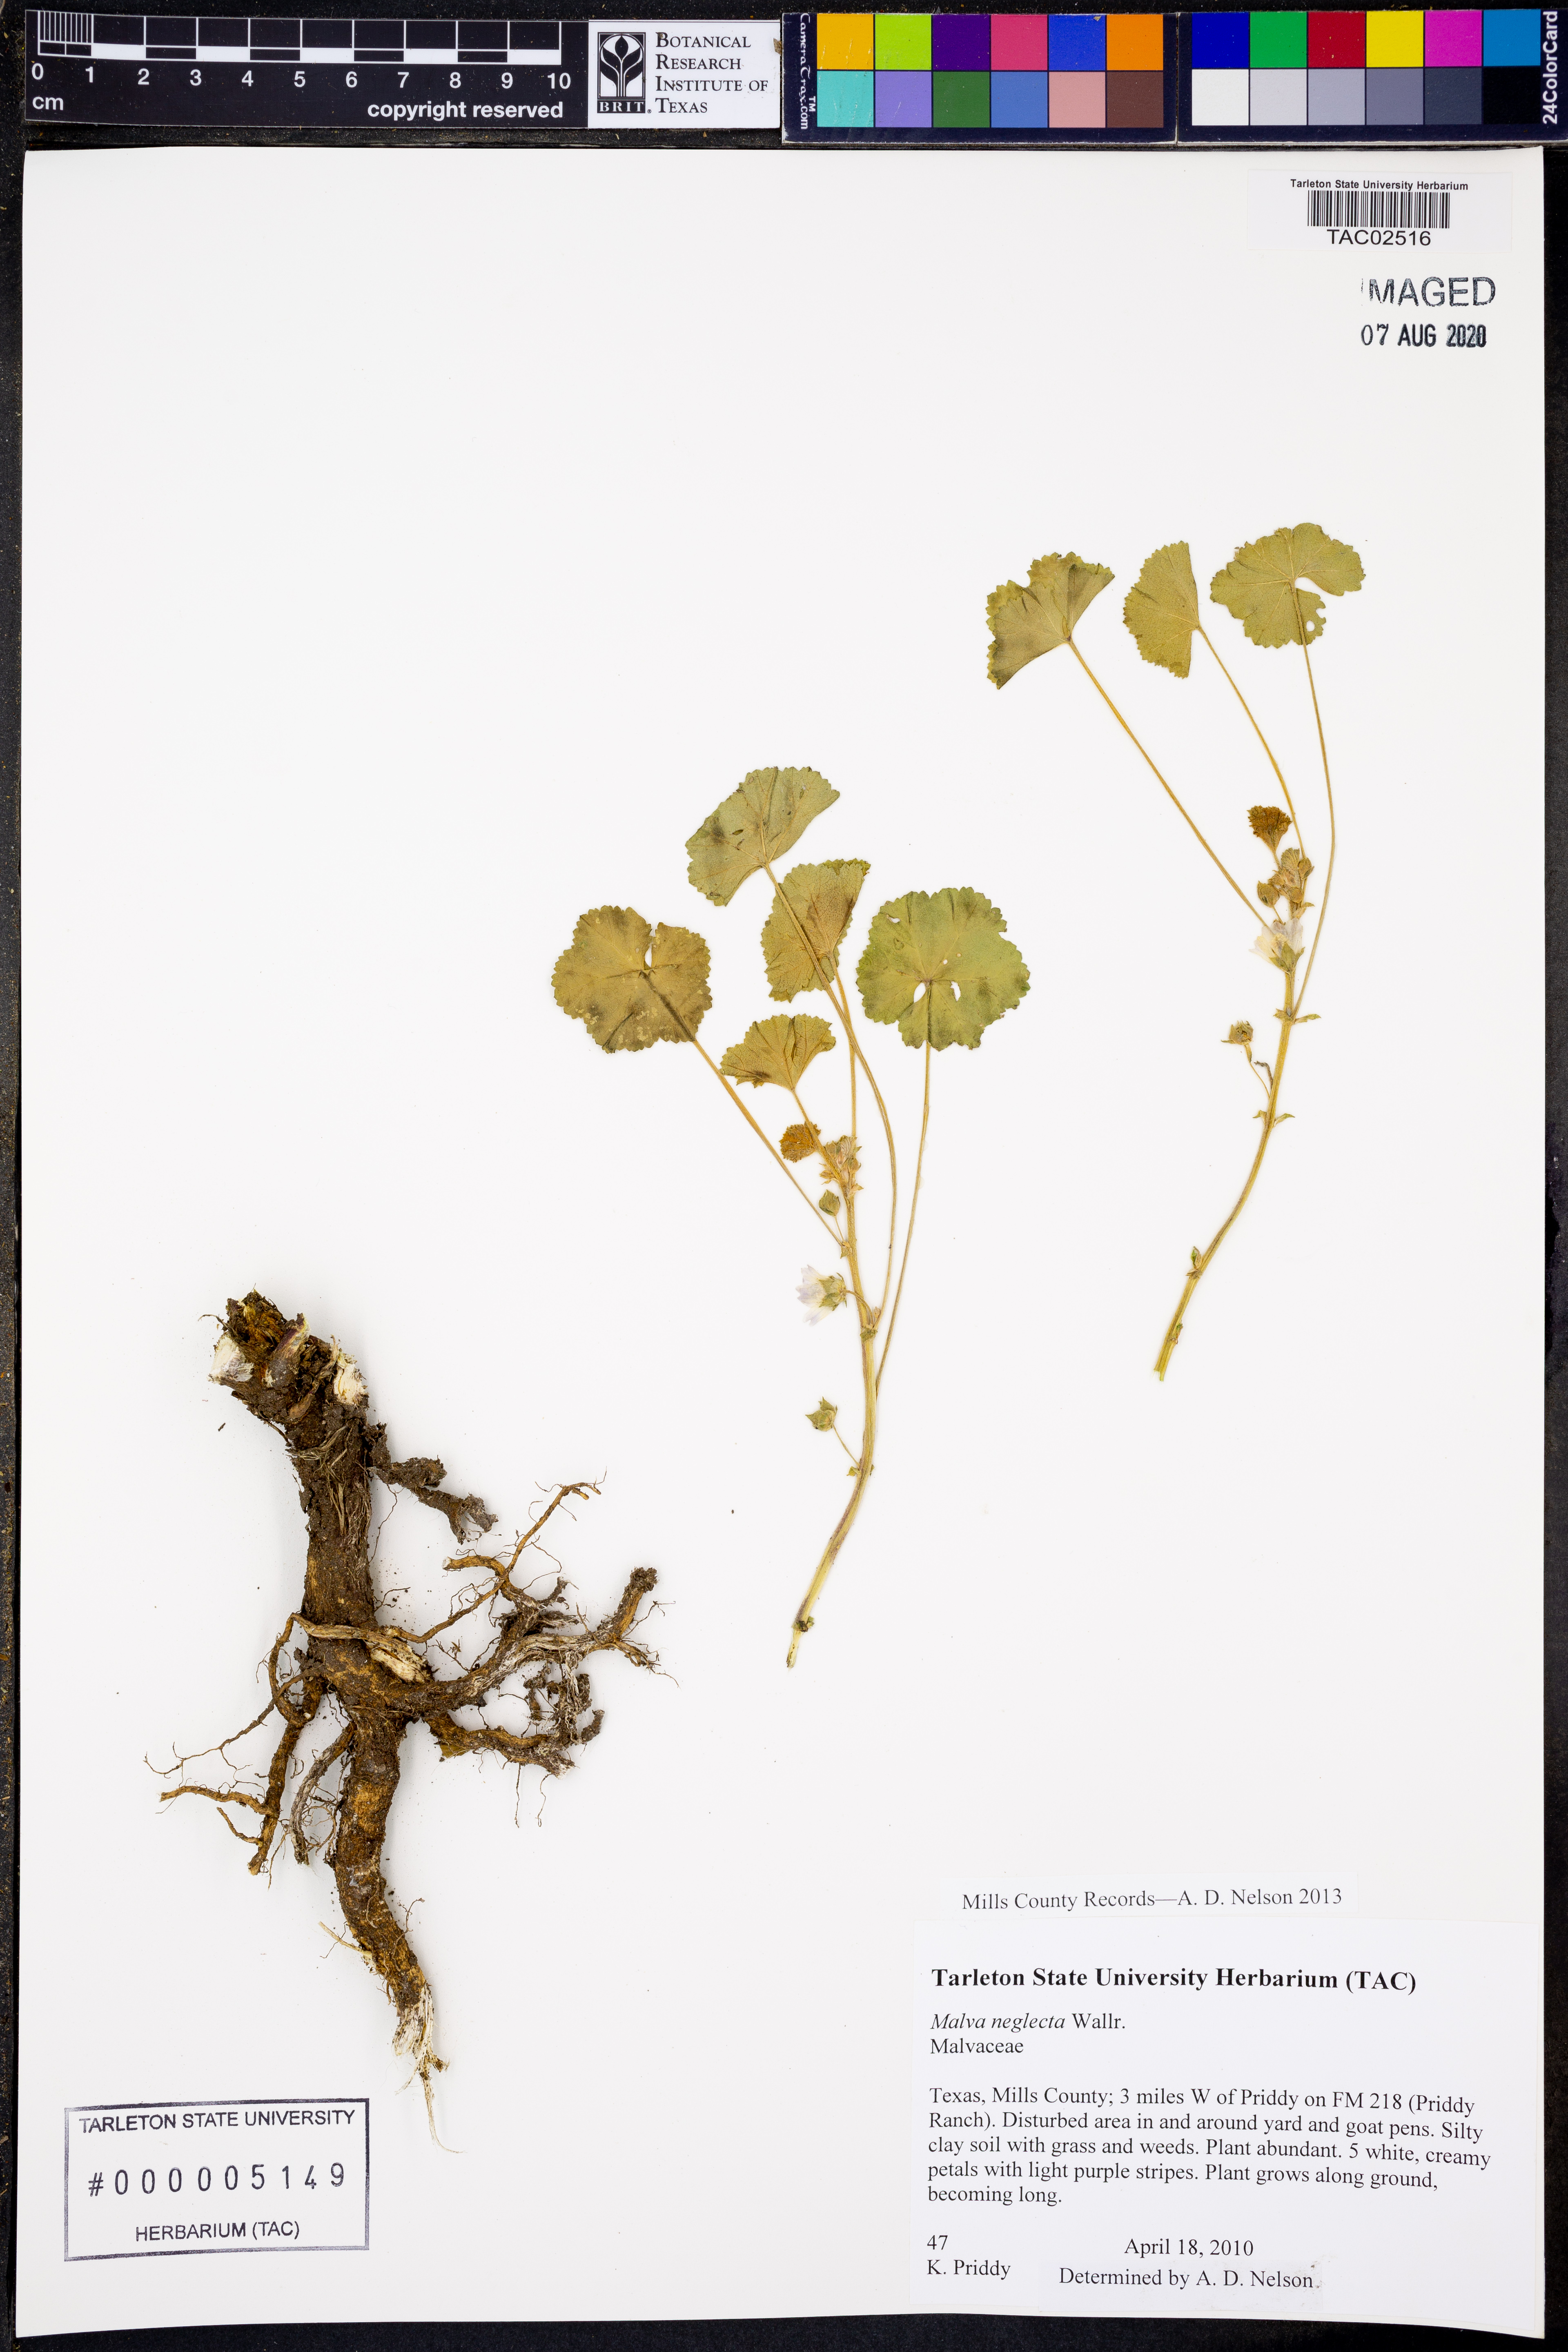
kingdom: Plantae
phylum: Tracheophyta
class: Magnoliopsida
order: Malvales
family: Malvaceae
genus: Malva
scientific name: Malva neglecta
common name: Common mallow
